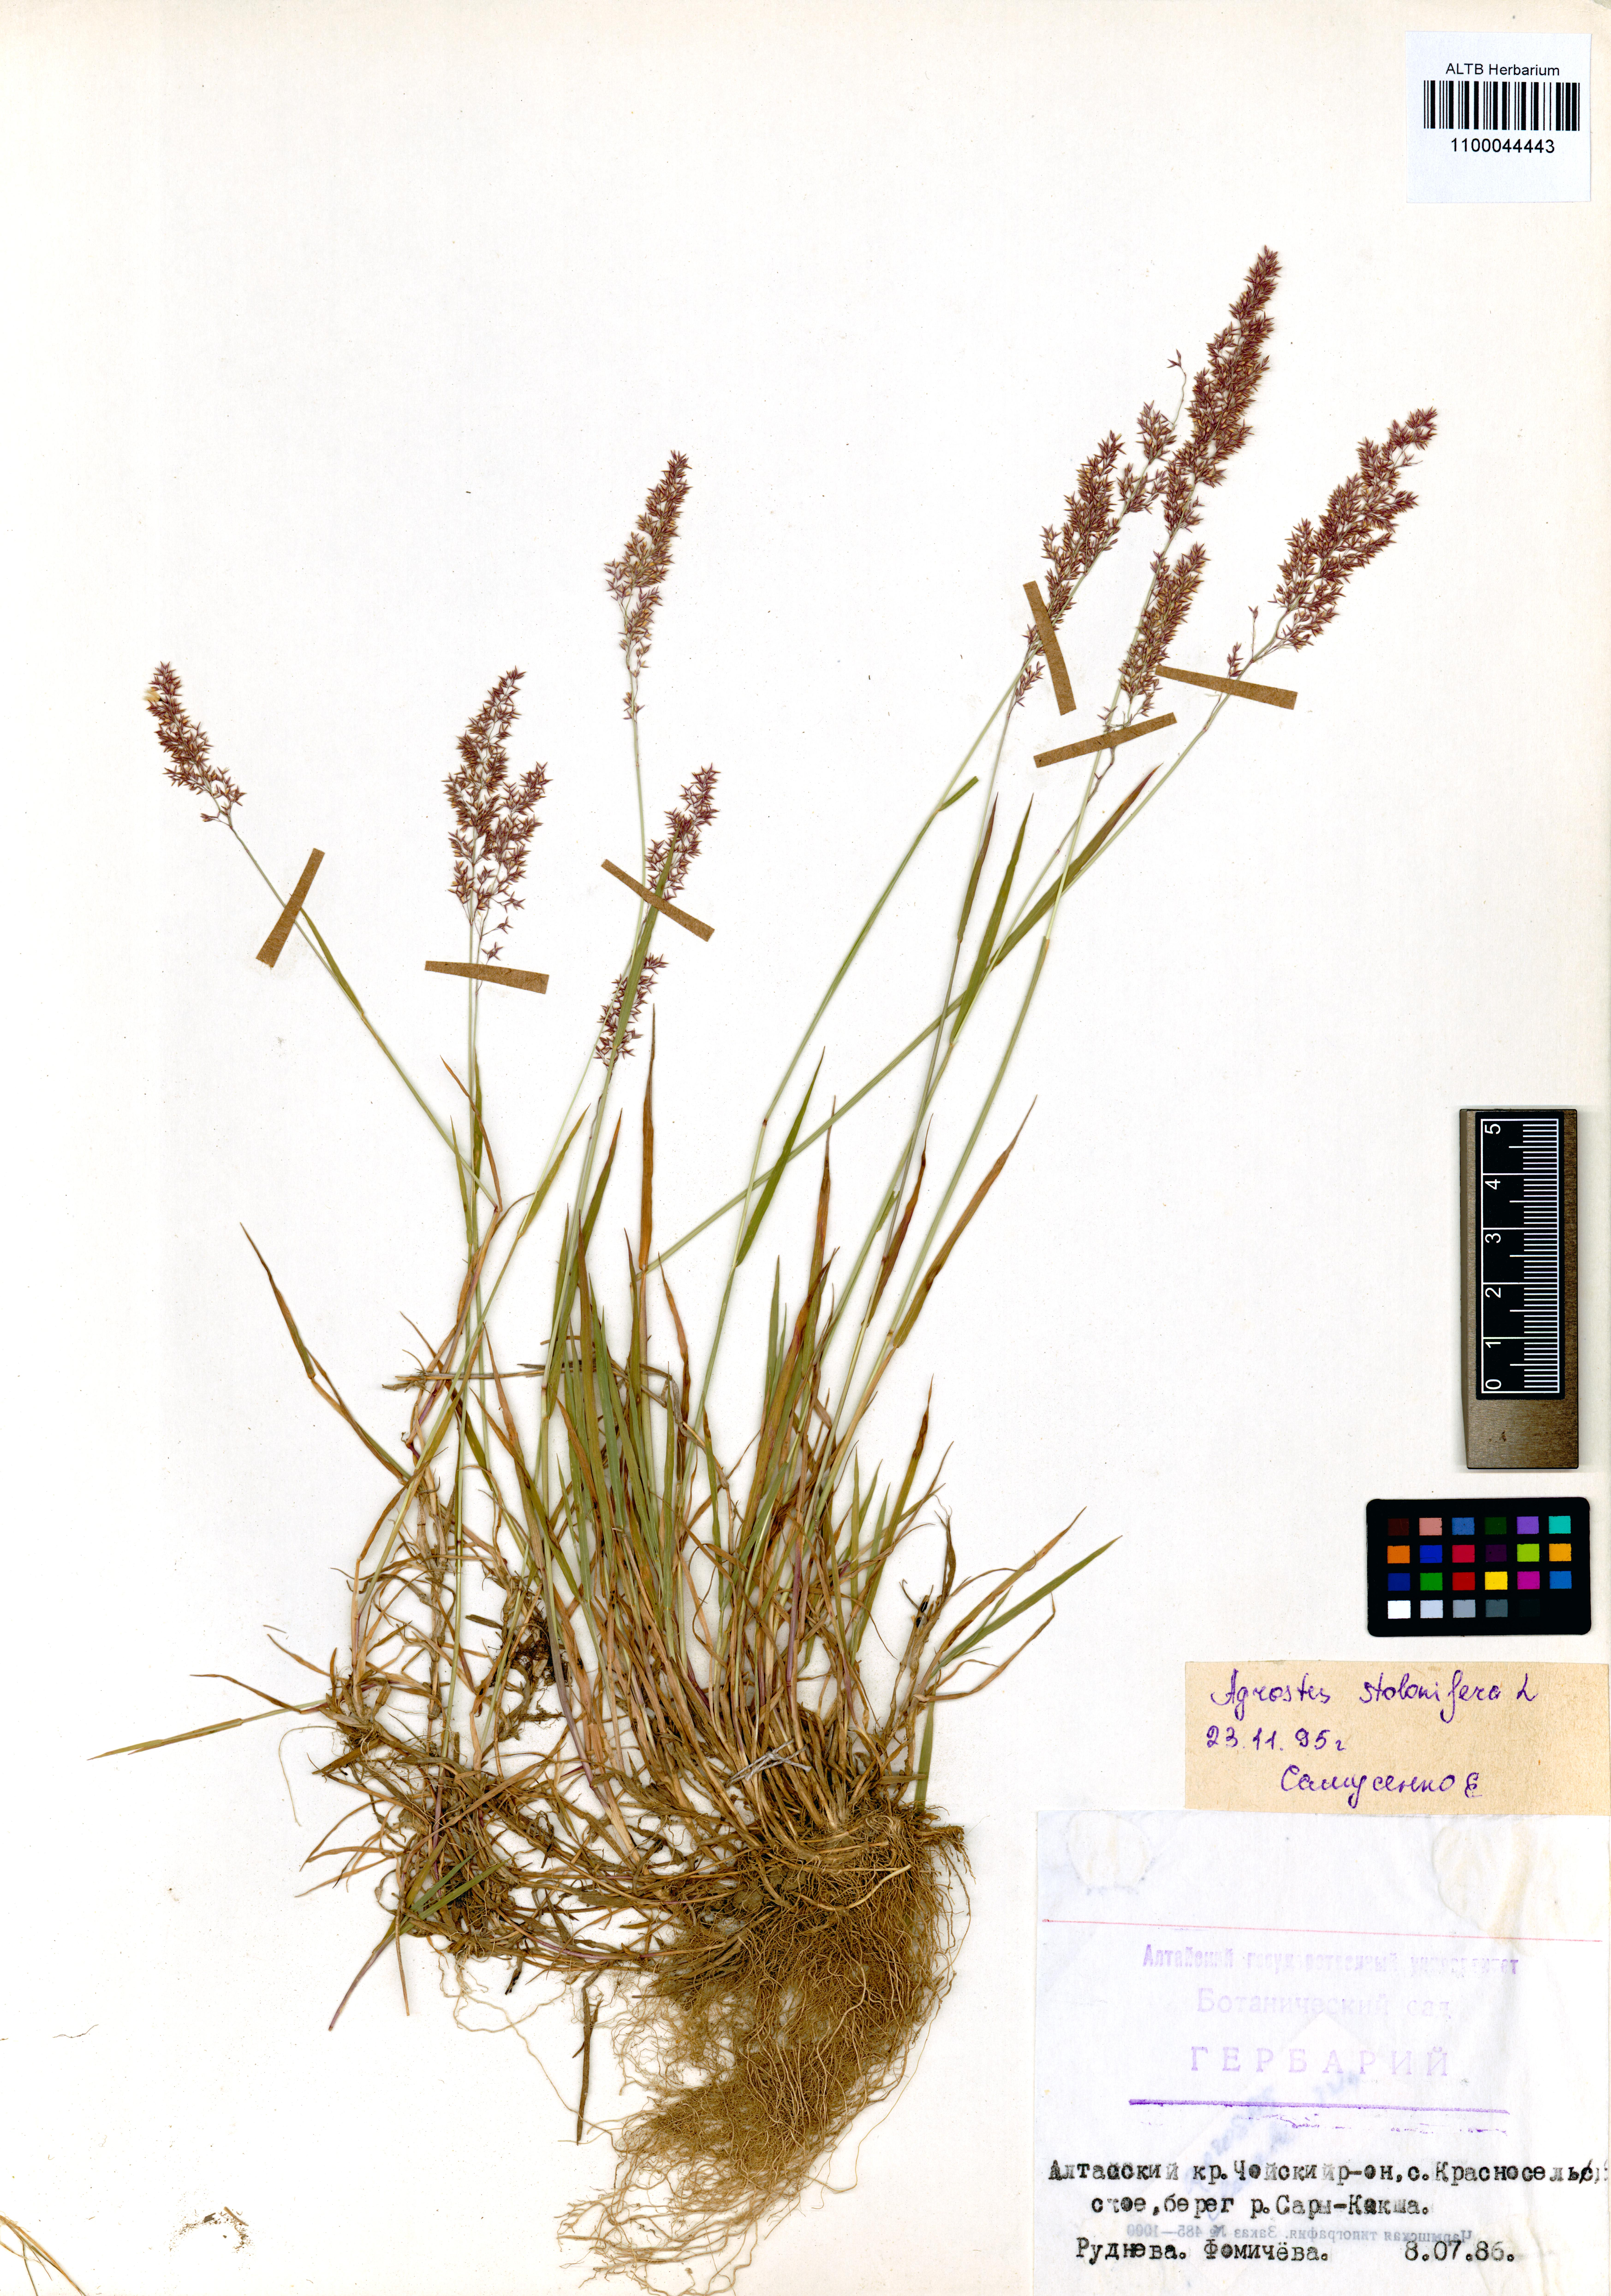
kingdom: Plantae
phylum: Tracheophyta
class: Liliopsida
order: Poales
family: Poaceae
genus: Agrostis
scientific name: Agrostis stolonifera
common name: Creeping bentgrass
